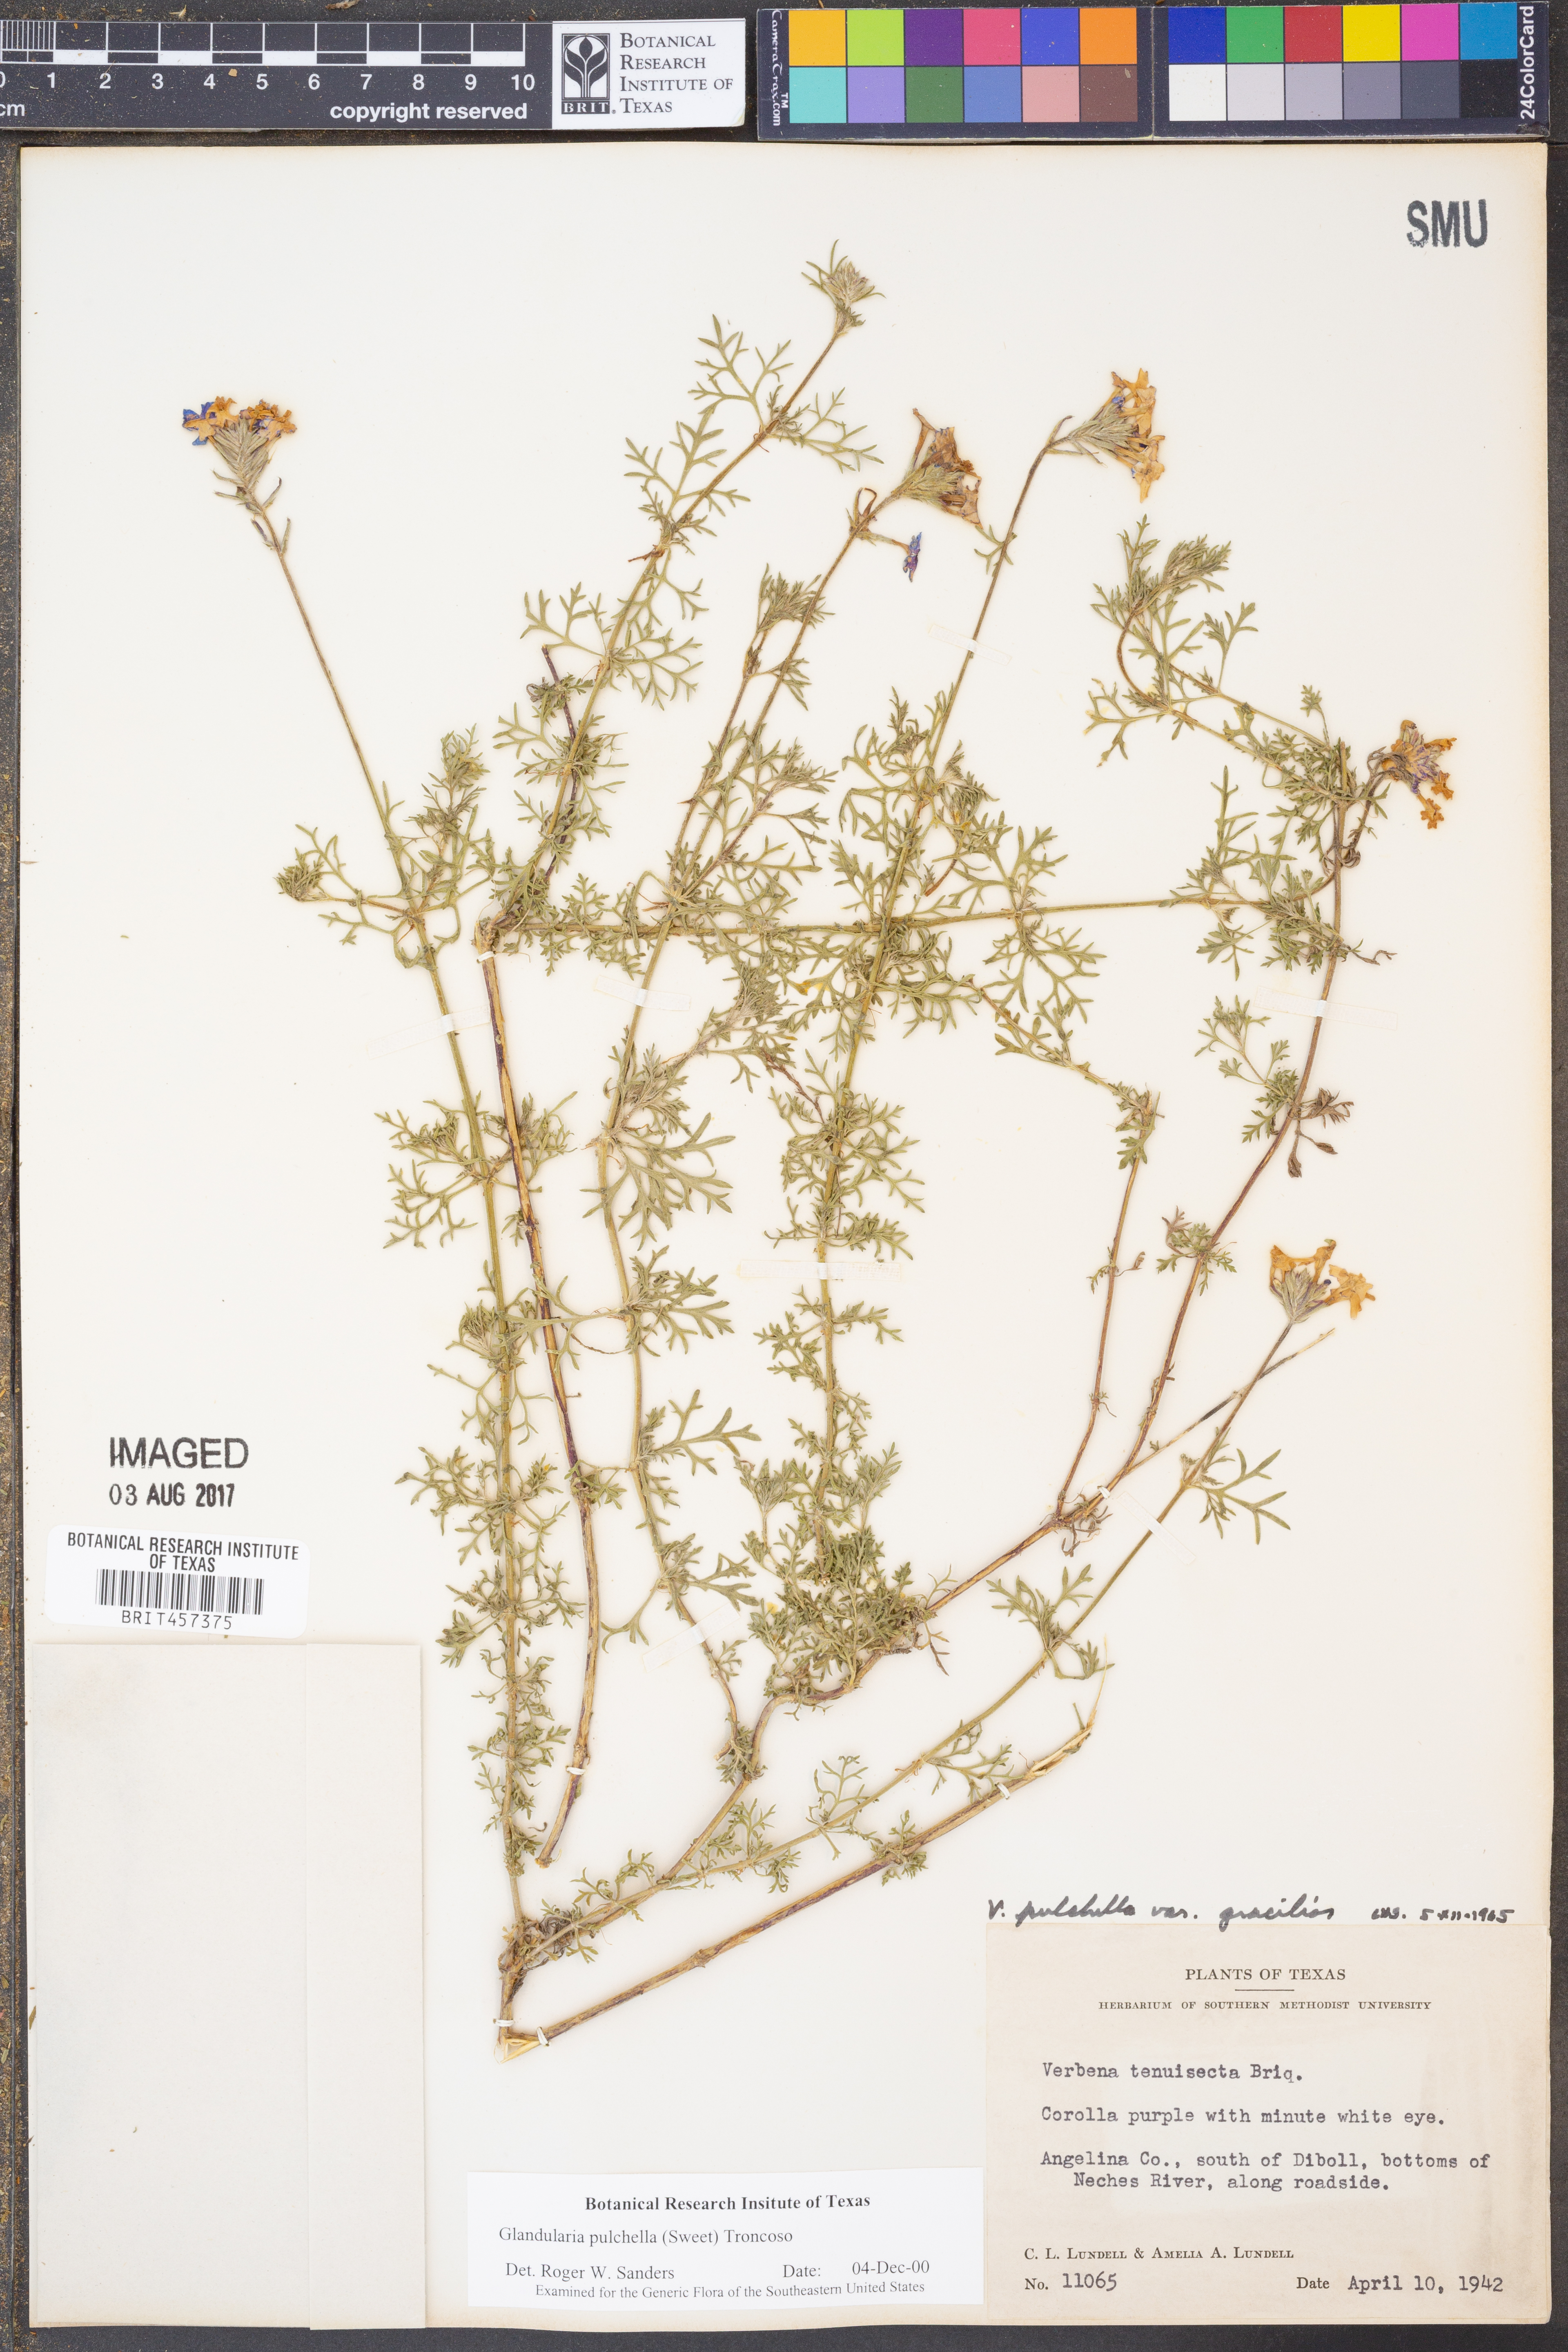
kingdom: Plantae
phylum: Tracheophyta
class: Magnoliopsida
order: Lamiales
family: Verbenaceae
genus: Verbena
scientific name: Verbena tenera
